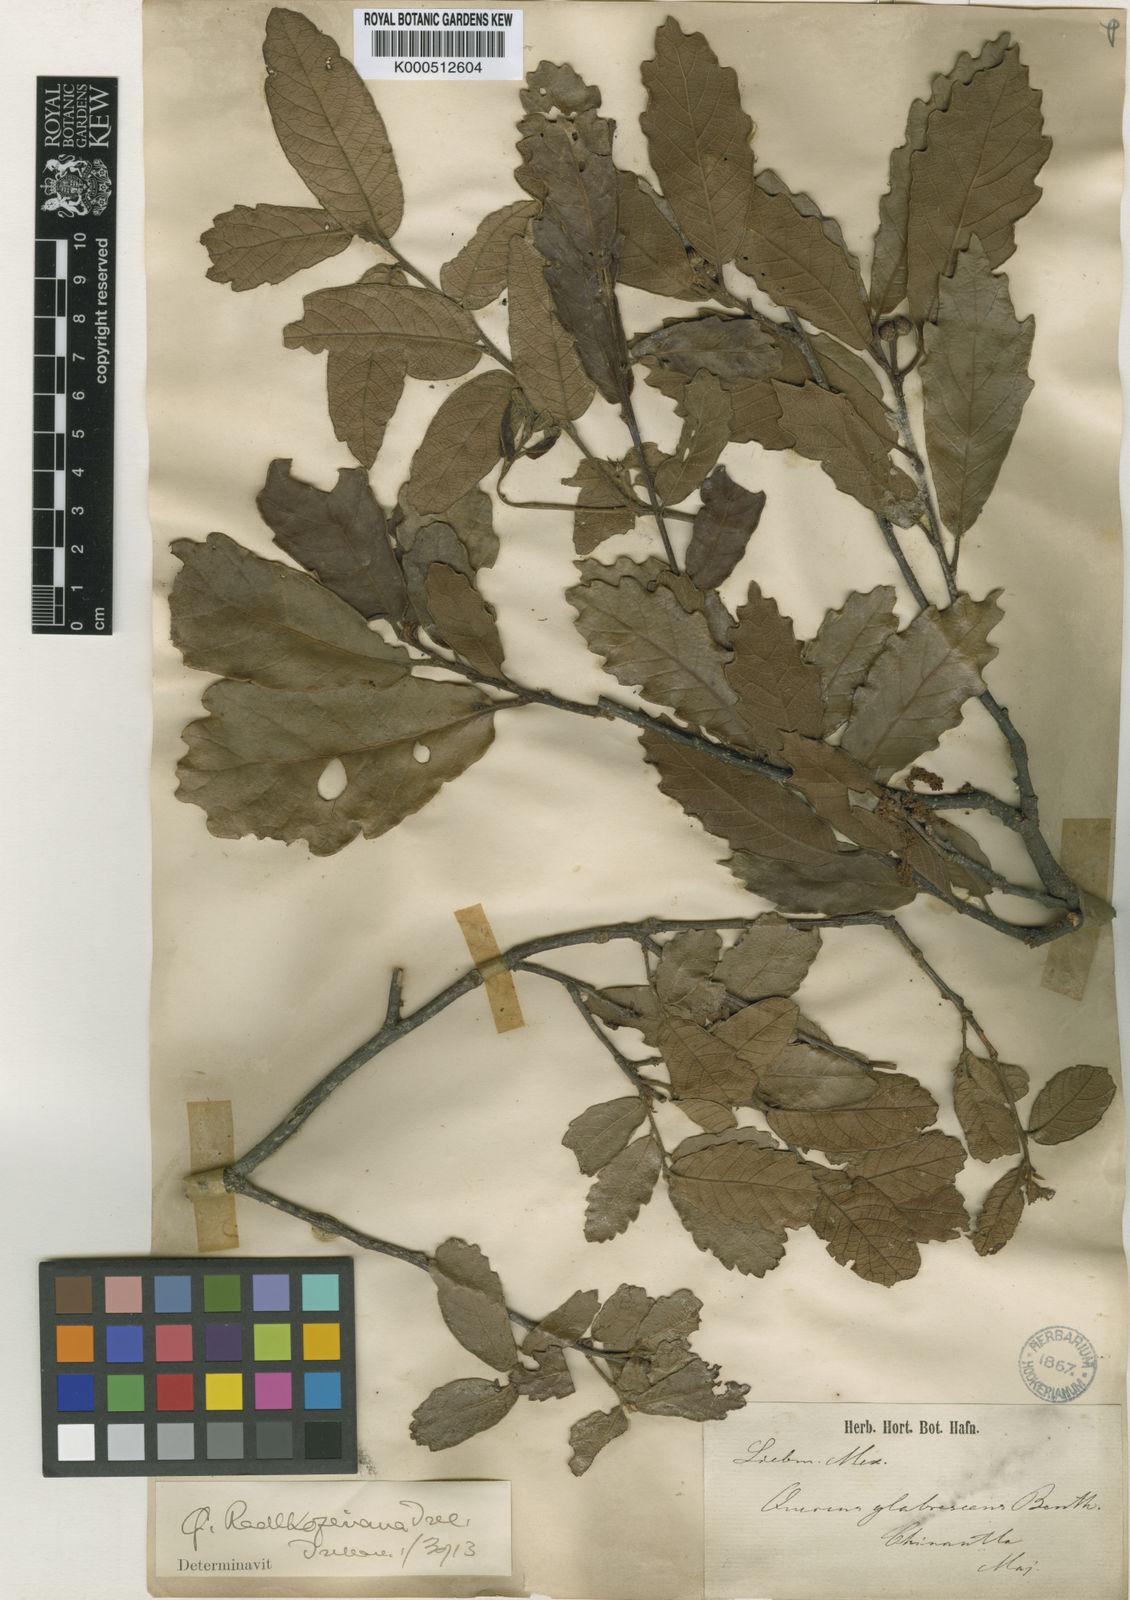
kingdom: Plantae
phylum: Tracheophyta
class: Magnoliopsida
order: Fagales
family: Fagaceae
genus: Quercus
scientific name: Quercus glabrescens
